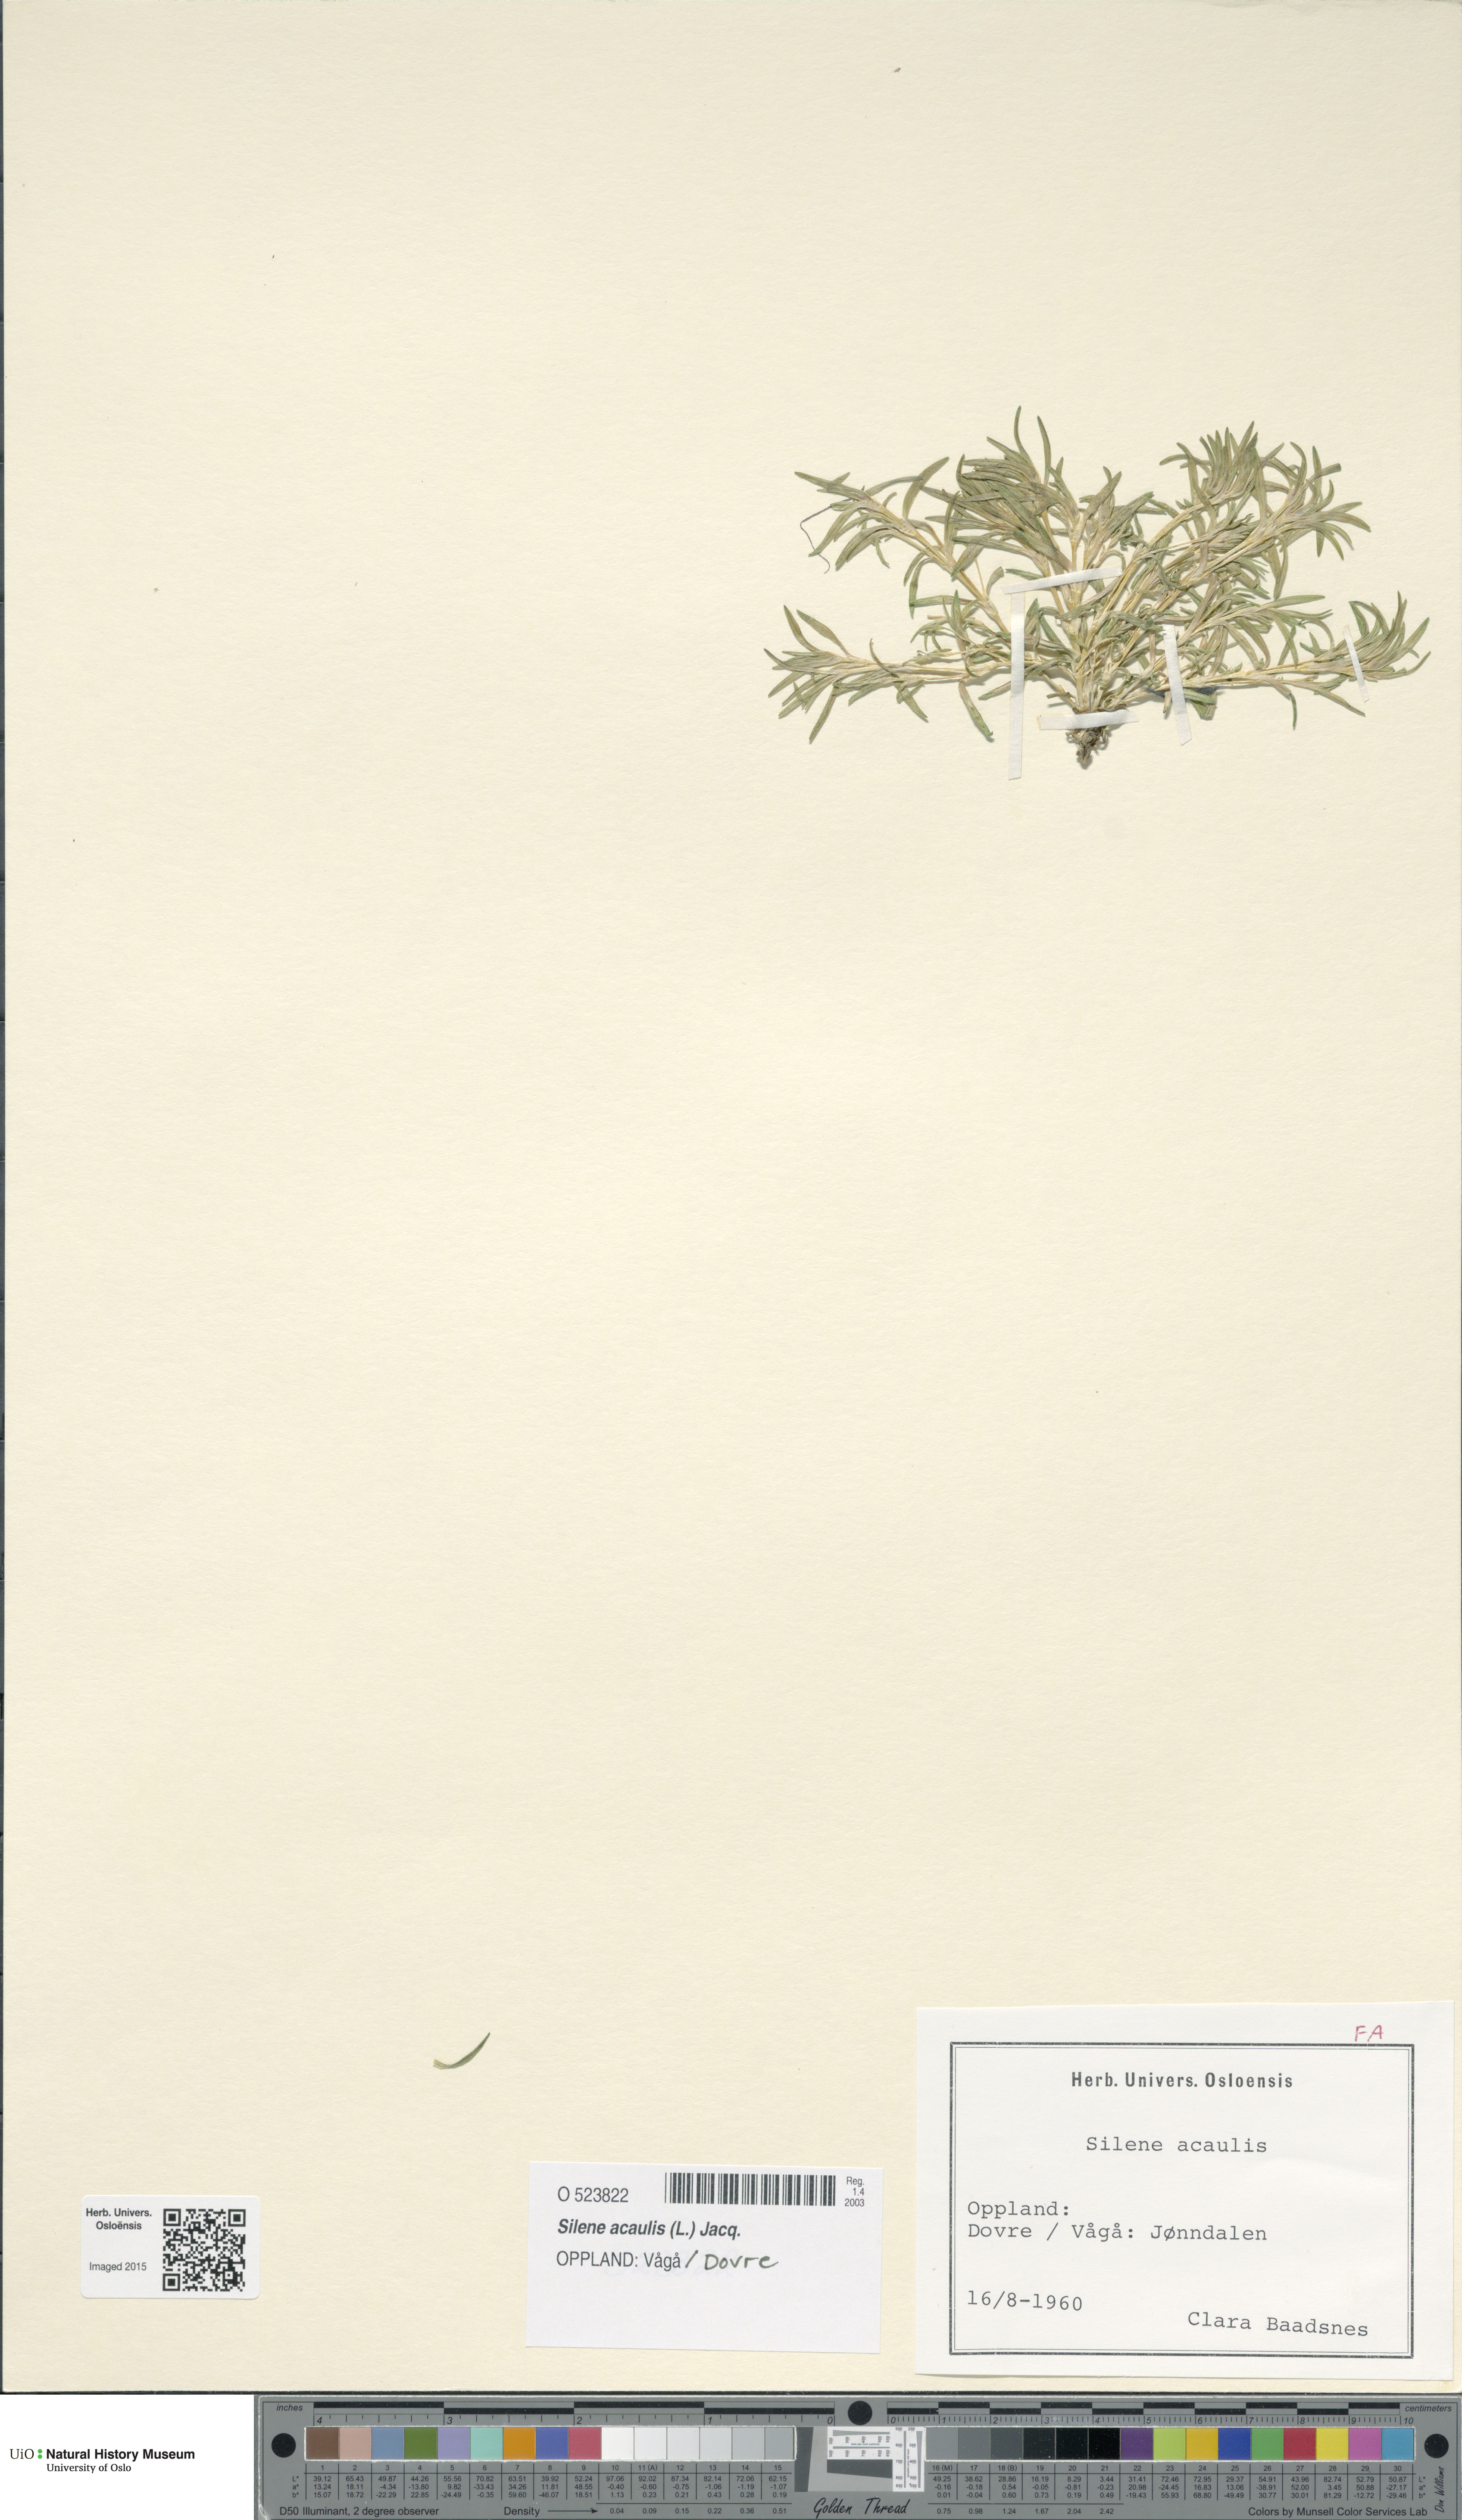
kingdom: Plantae
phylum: Tracheophyta
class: Magnoliopsida
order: Caryophyllales
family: Caryophyllaceae
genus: Silene
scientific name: Silene acaulis
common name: Moss campion
